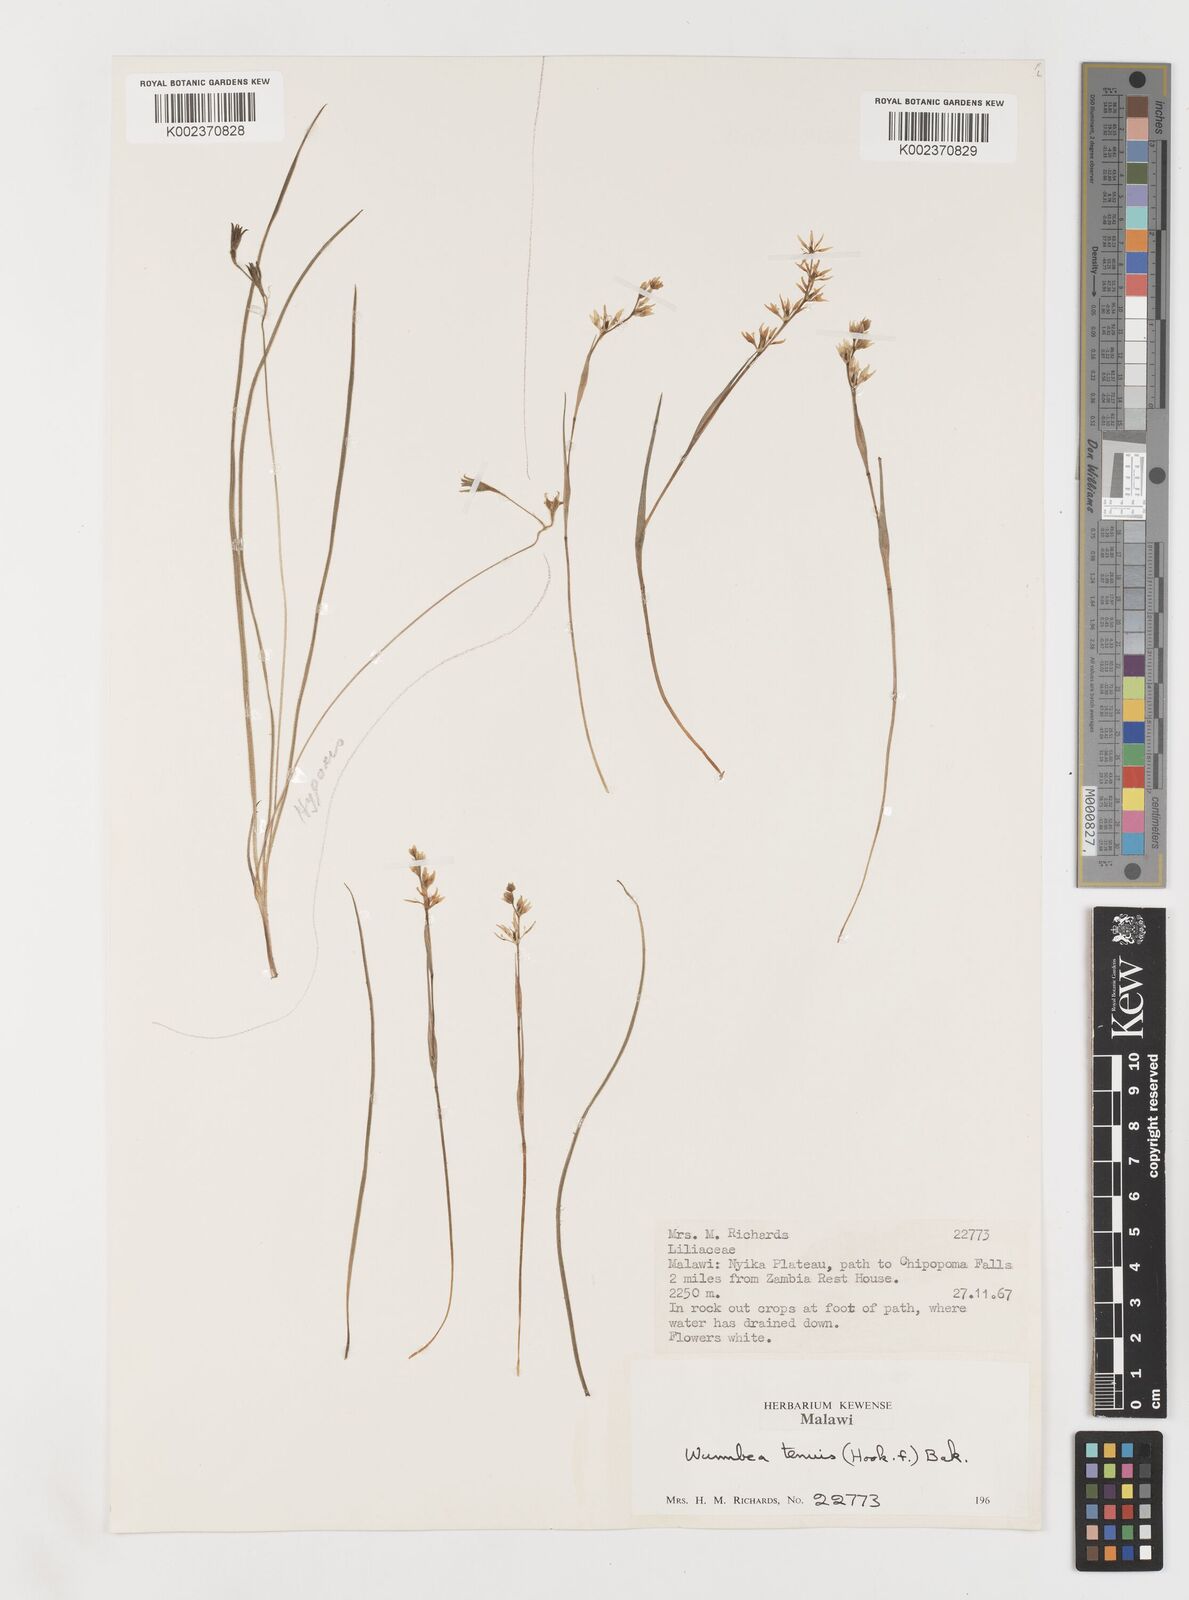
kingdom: Plantae
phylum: Tracheophyta
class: Liliopsida
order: Liliales
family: Colchicaceae
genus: Wurmbea
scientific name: Wurmbea tenuis
